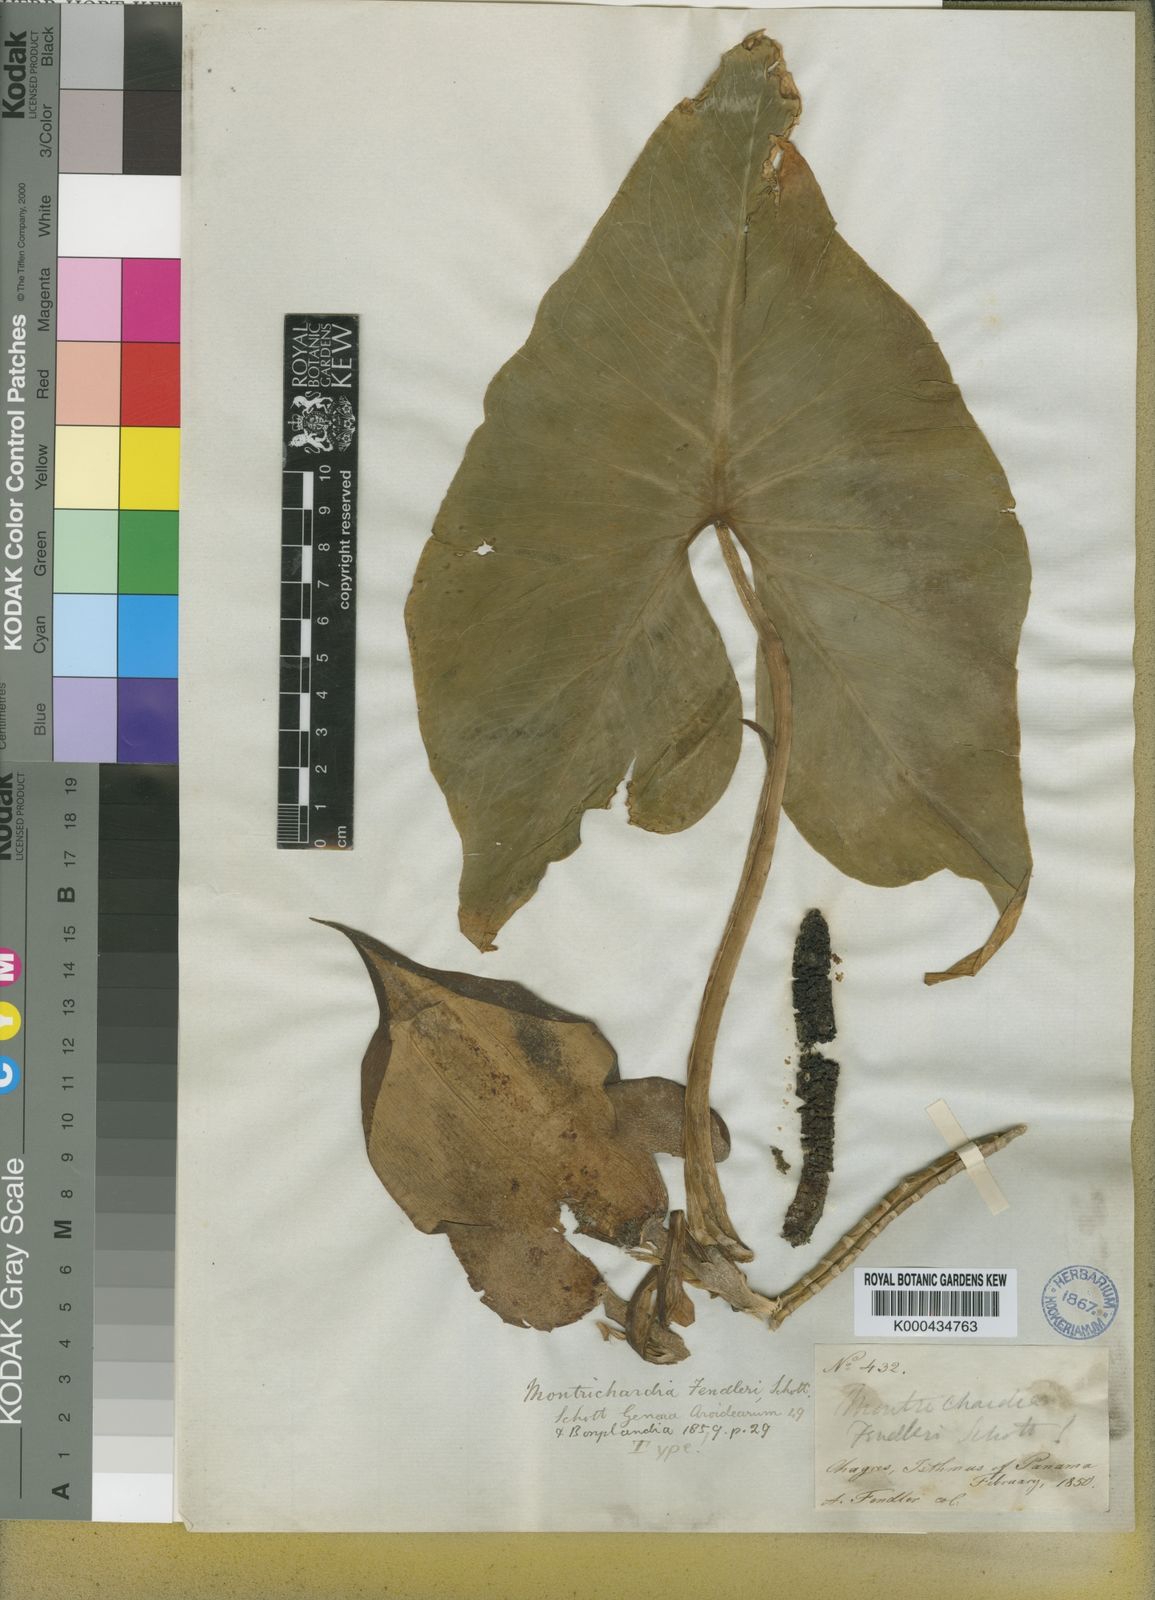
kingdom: Plantae
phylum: Tracheophyta
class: Liliopsida
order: Alismatales
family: Araceae
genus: Montrichardia
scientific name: Montrichardia arborescens
